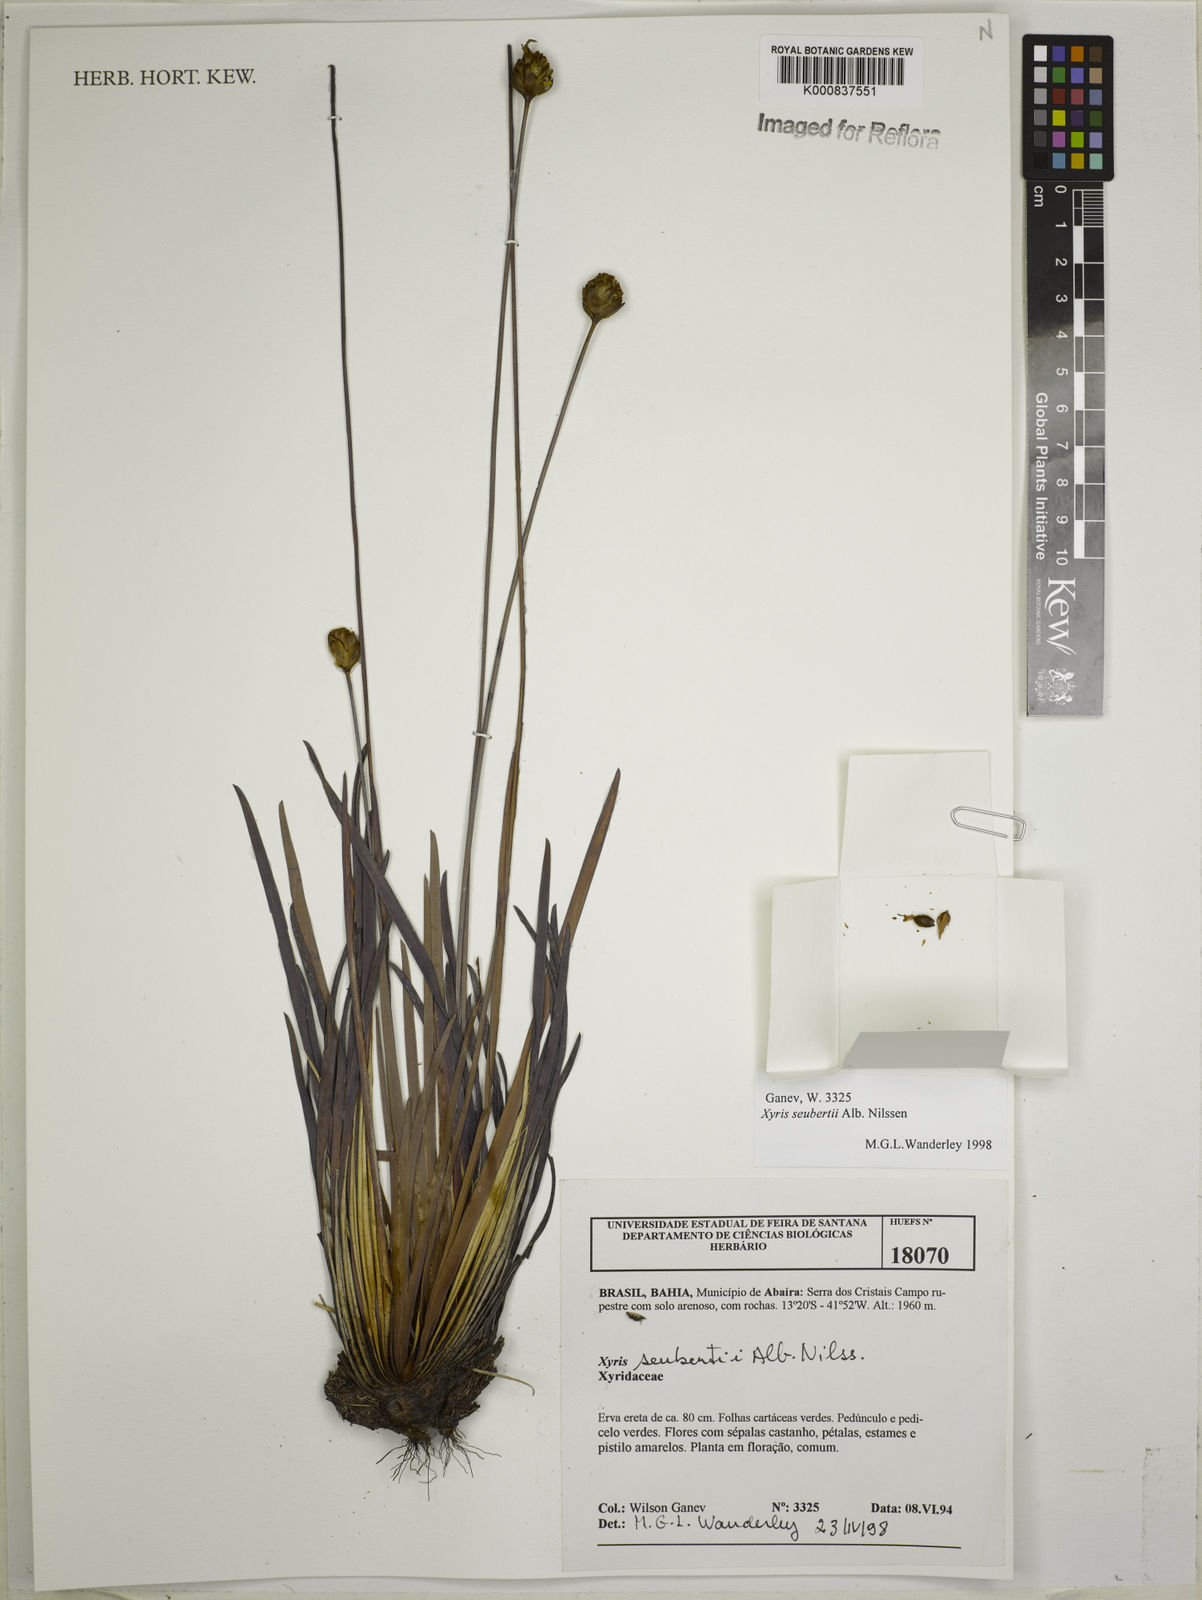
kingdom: Plantae
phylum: Tracheophyta
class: Liliopsida
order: Poales
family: Xyridaceae
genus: Xyris
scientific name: Xyris seubertii
